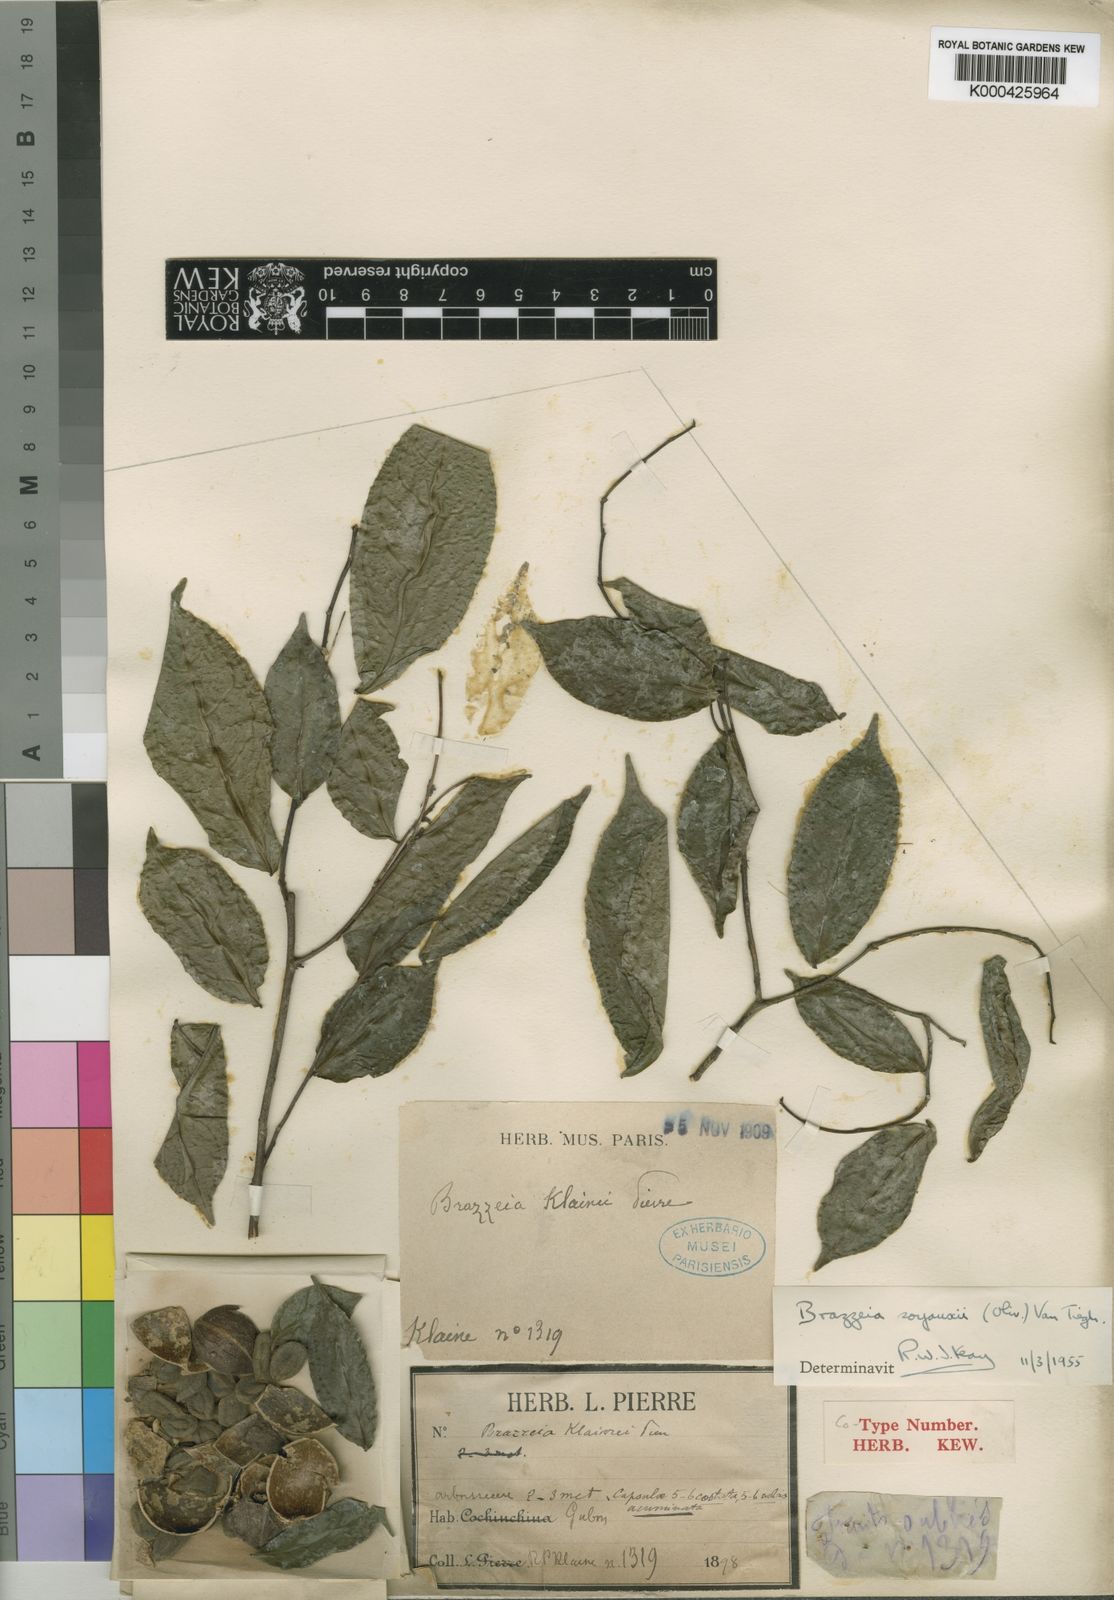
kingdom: Plantae
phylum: Tracheophyta
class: Magnoliopsida
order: Ericales
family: Lecythidaceae
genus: Brazzeia
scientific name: Brazzeia soyauxii
